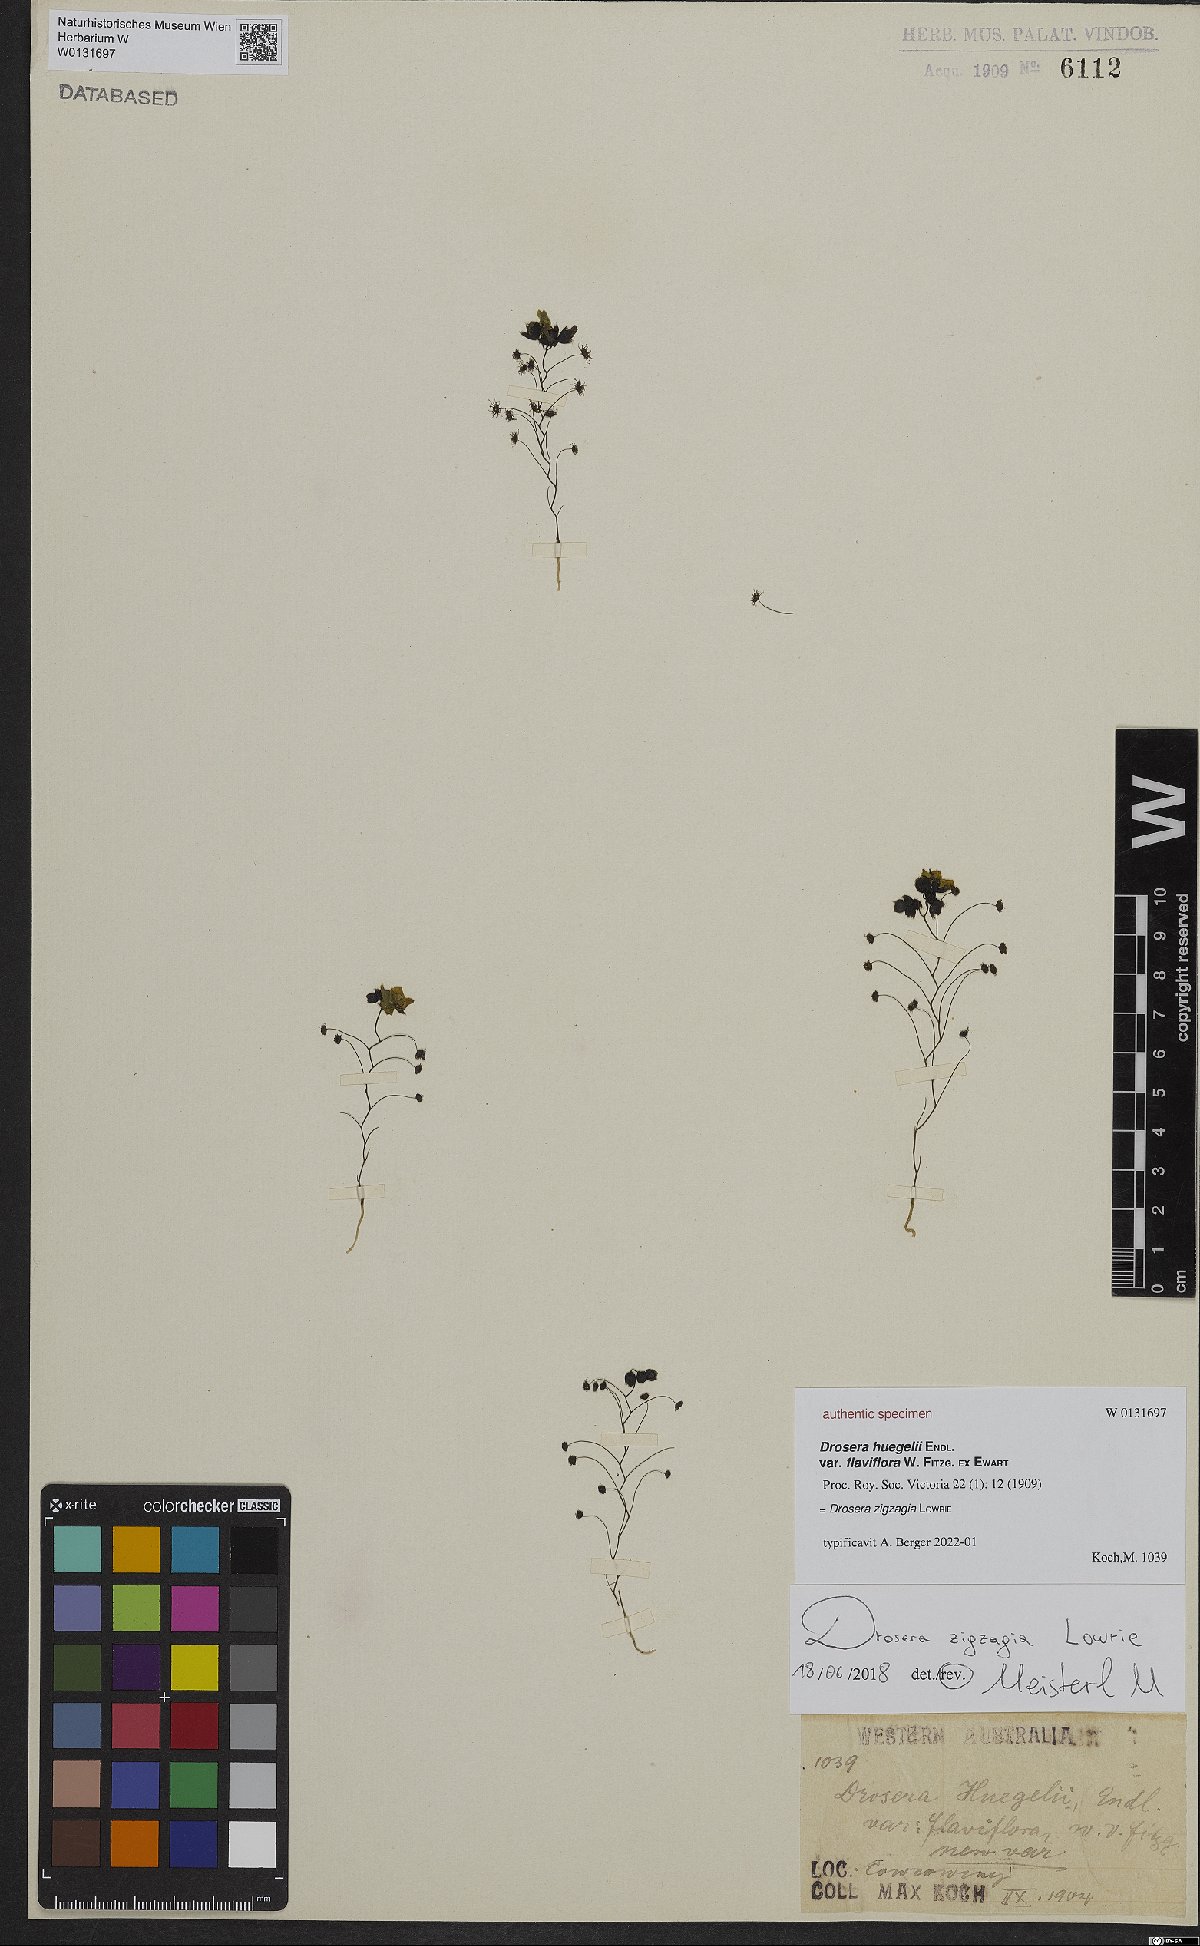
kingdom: Plantae
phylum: Tracheophyta
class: Magnoliopsida
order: Caryophyllales
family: Droseraceae
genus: Drosera
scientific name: Drosera zigzagia
